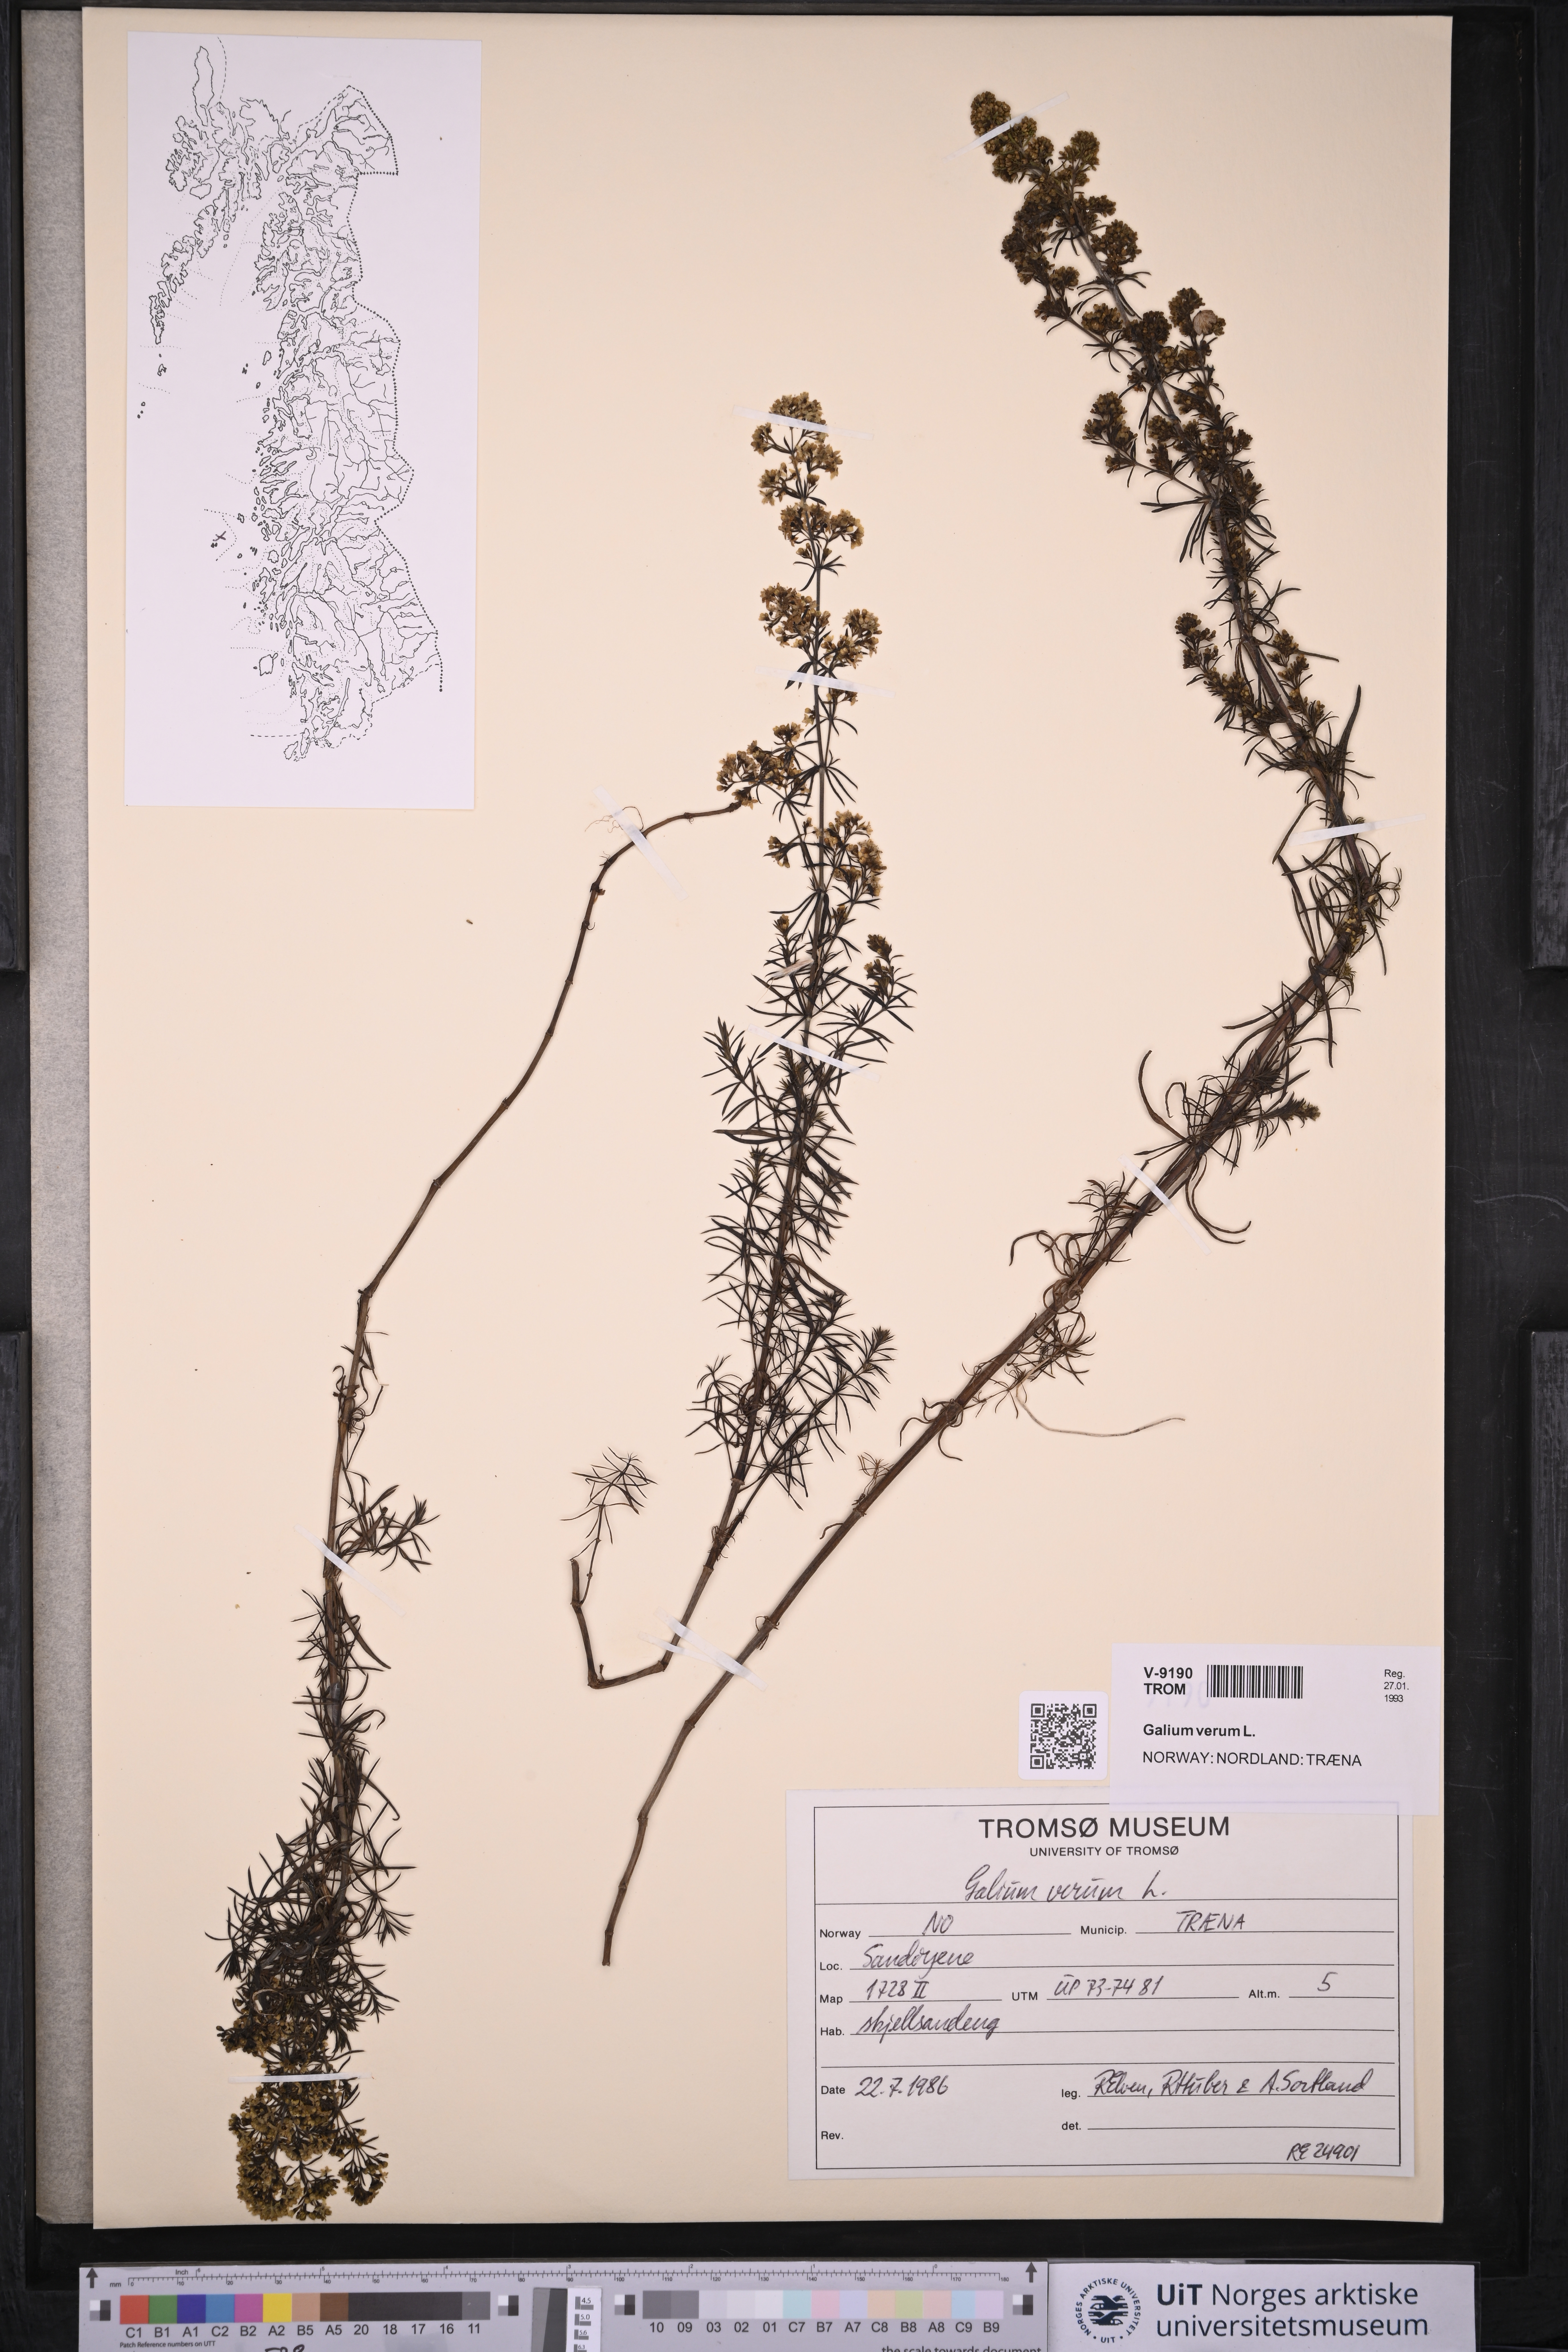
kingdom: Plantae
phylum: Tracheophyta
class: Magnoliopsida
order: Gentianales
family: Rubiaceae
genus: Galium
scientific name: Galium verum
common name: Lady's bedstraw
